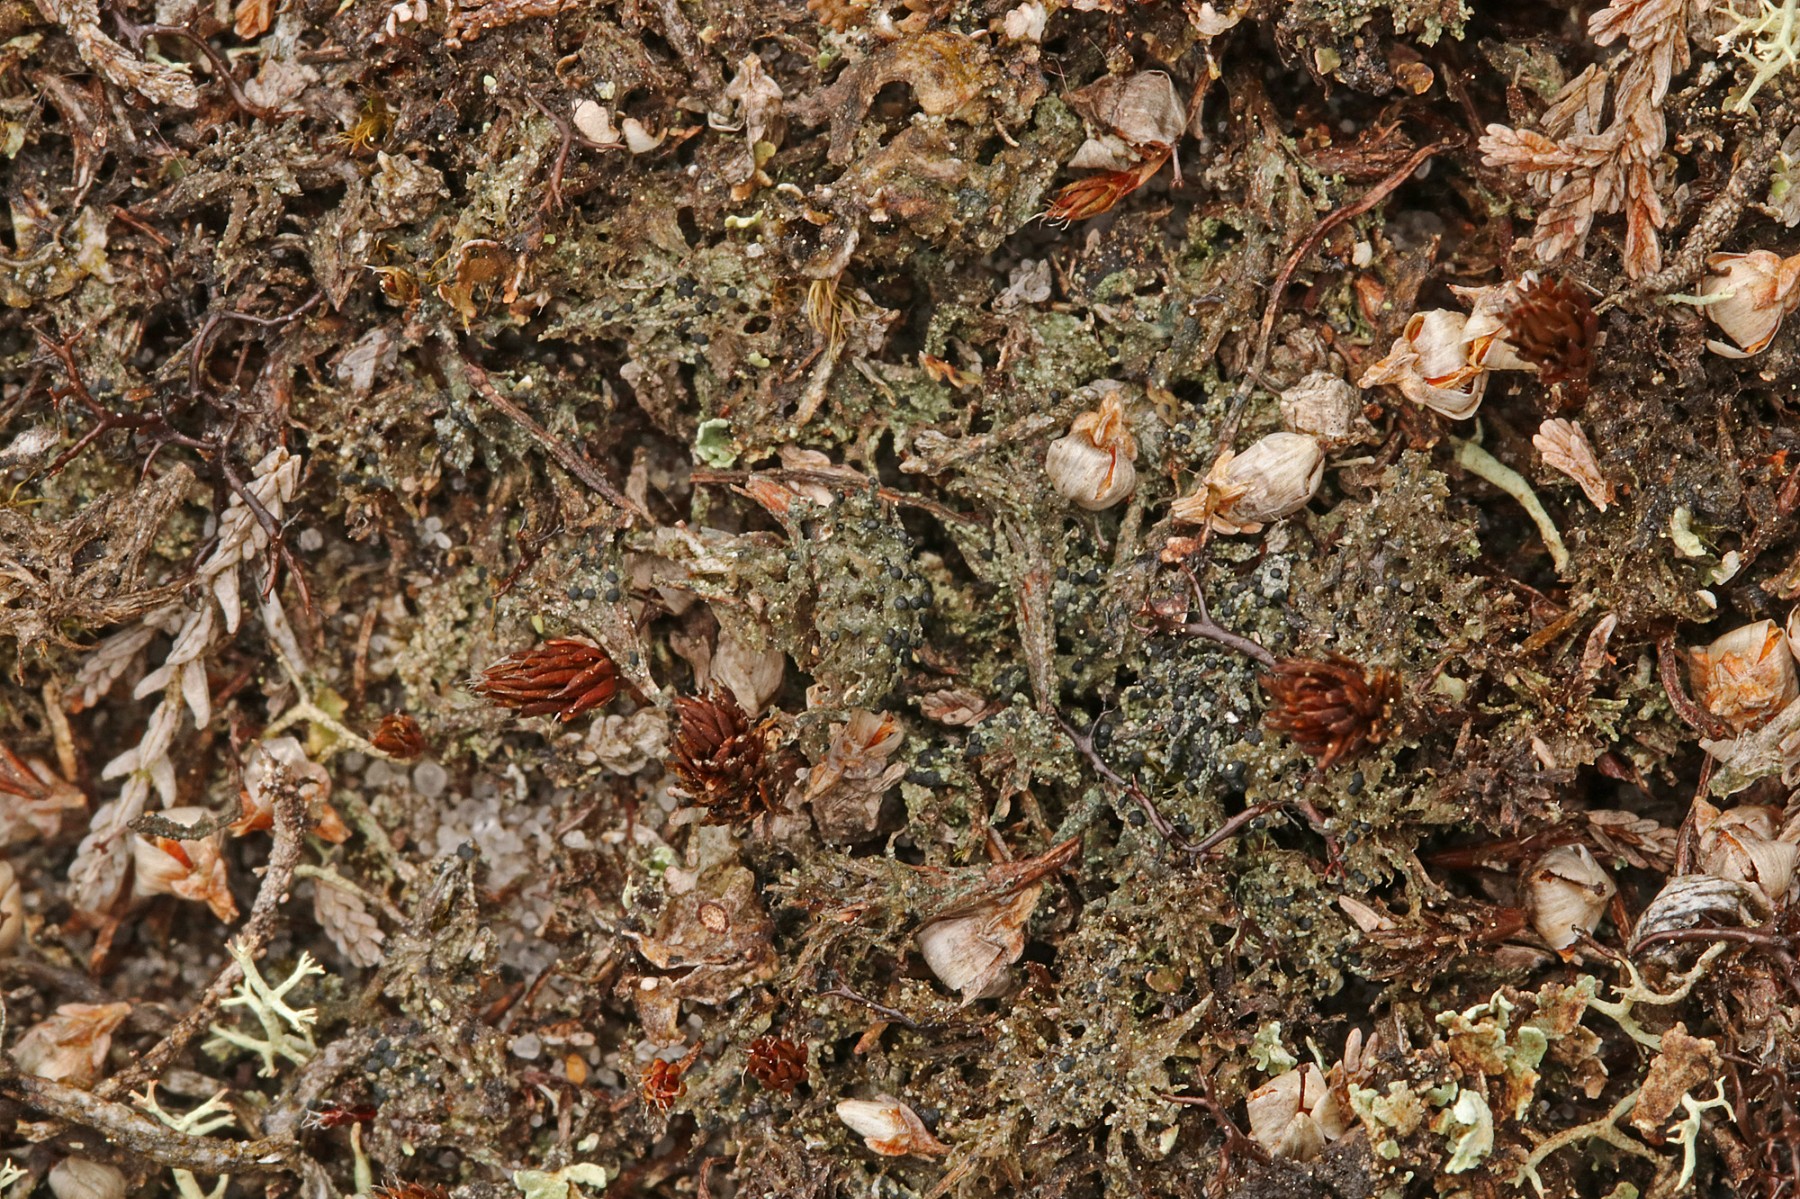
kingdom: Fungi
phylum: Ascomycota
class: Lecanoromycetes
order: Lecanorales
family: Byssolomataceae
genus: Micarea
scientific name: Micarea lignaria
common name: tørve-knaplav
